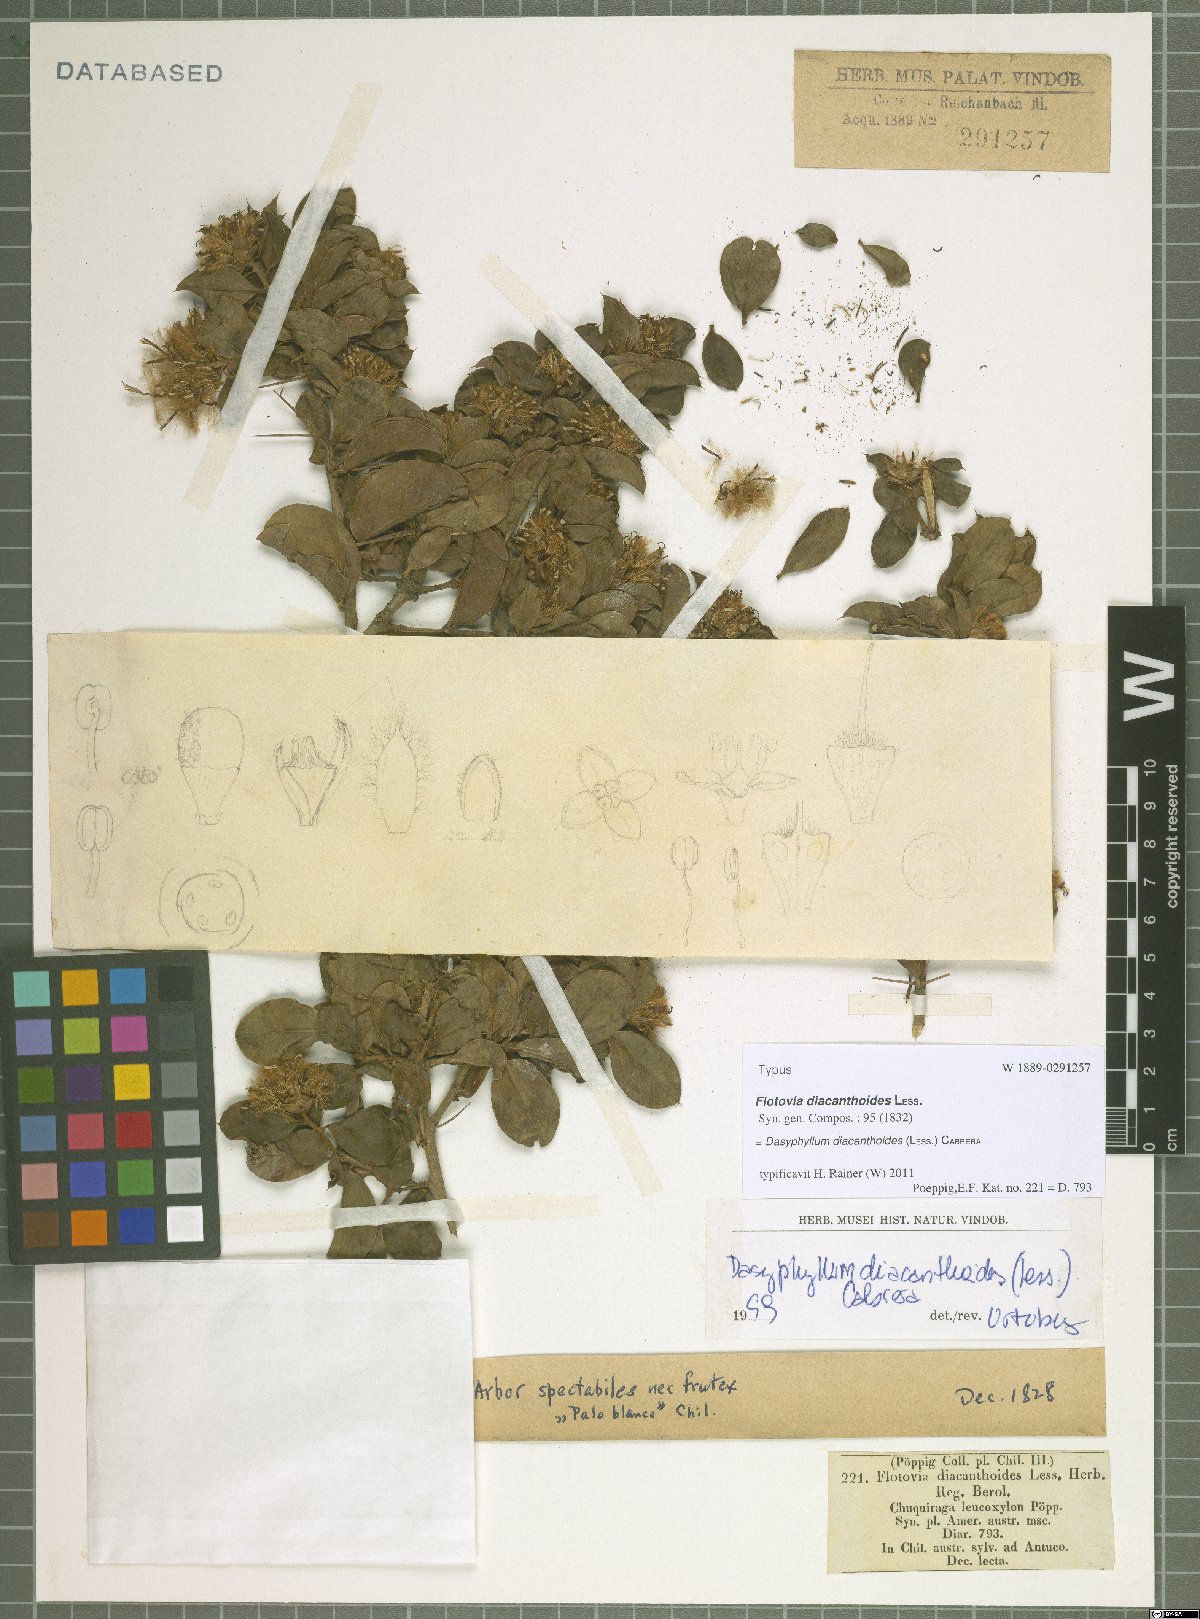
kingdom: Plantae
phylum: Tracheophyta
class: Magnoliopsida
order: Asterales
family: Asteraceae
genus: Archidasyphyllum
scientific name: Archidasyphyllum diacanthoides
